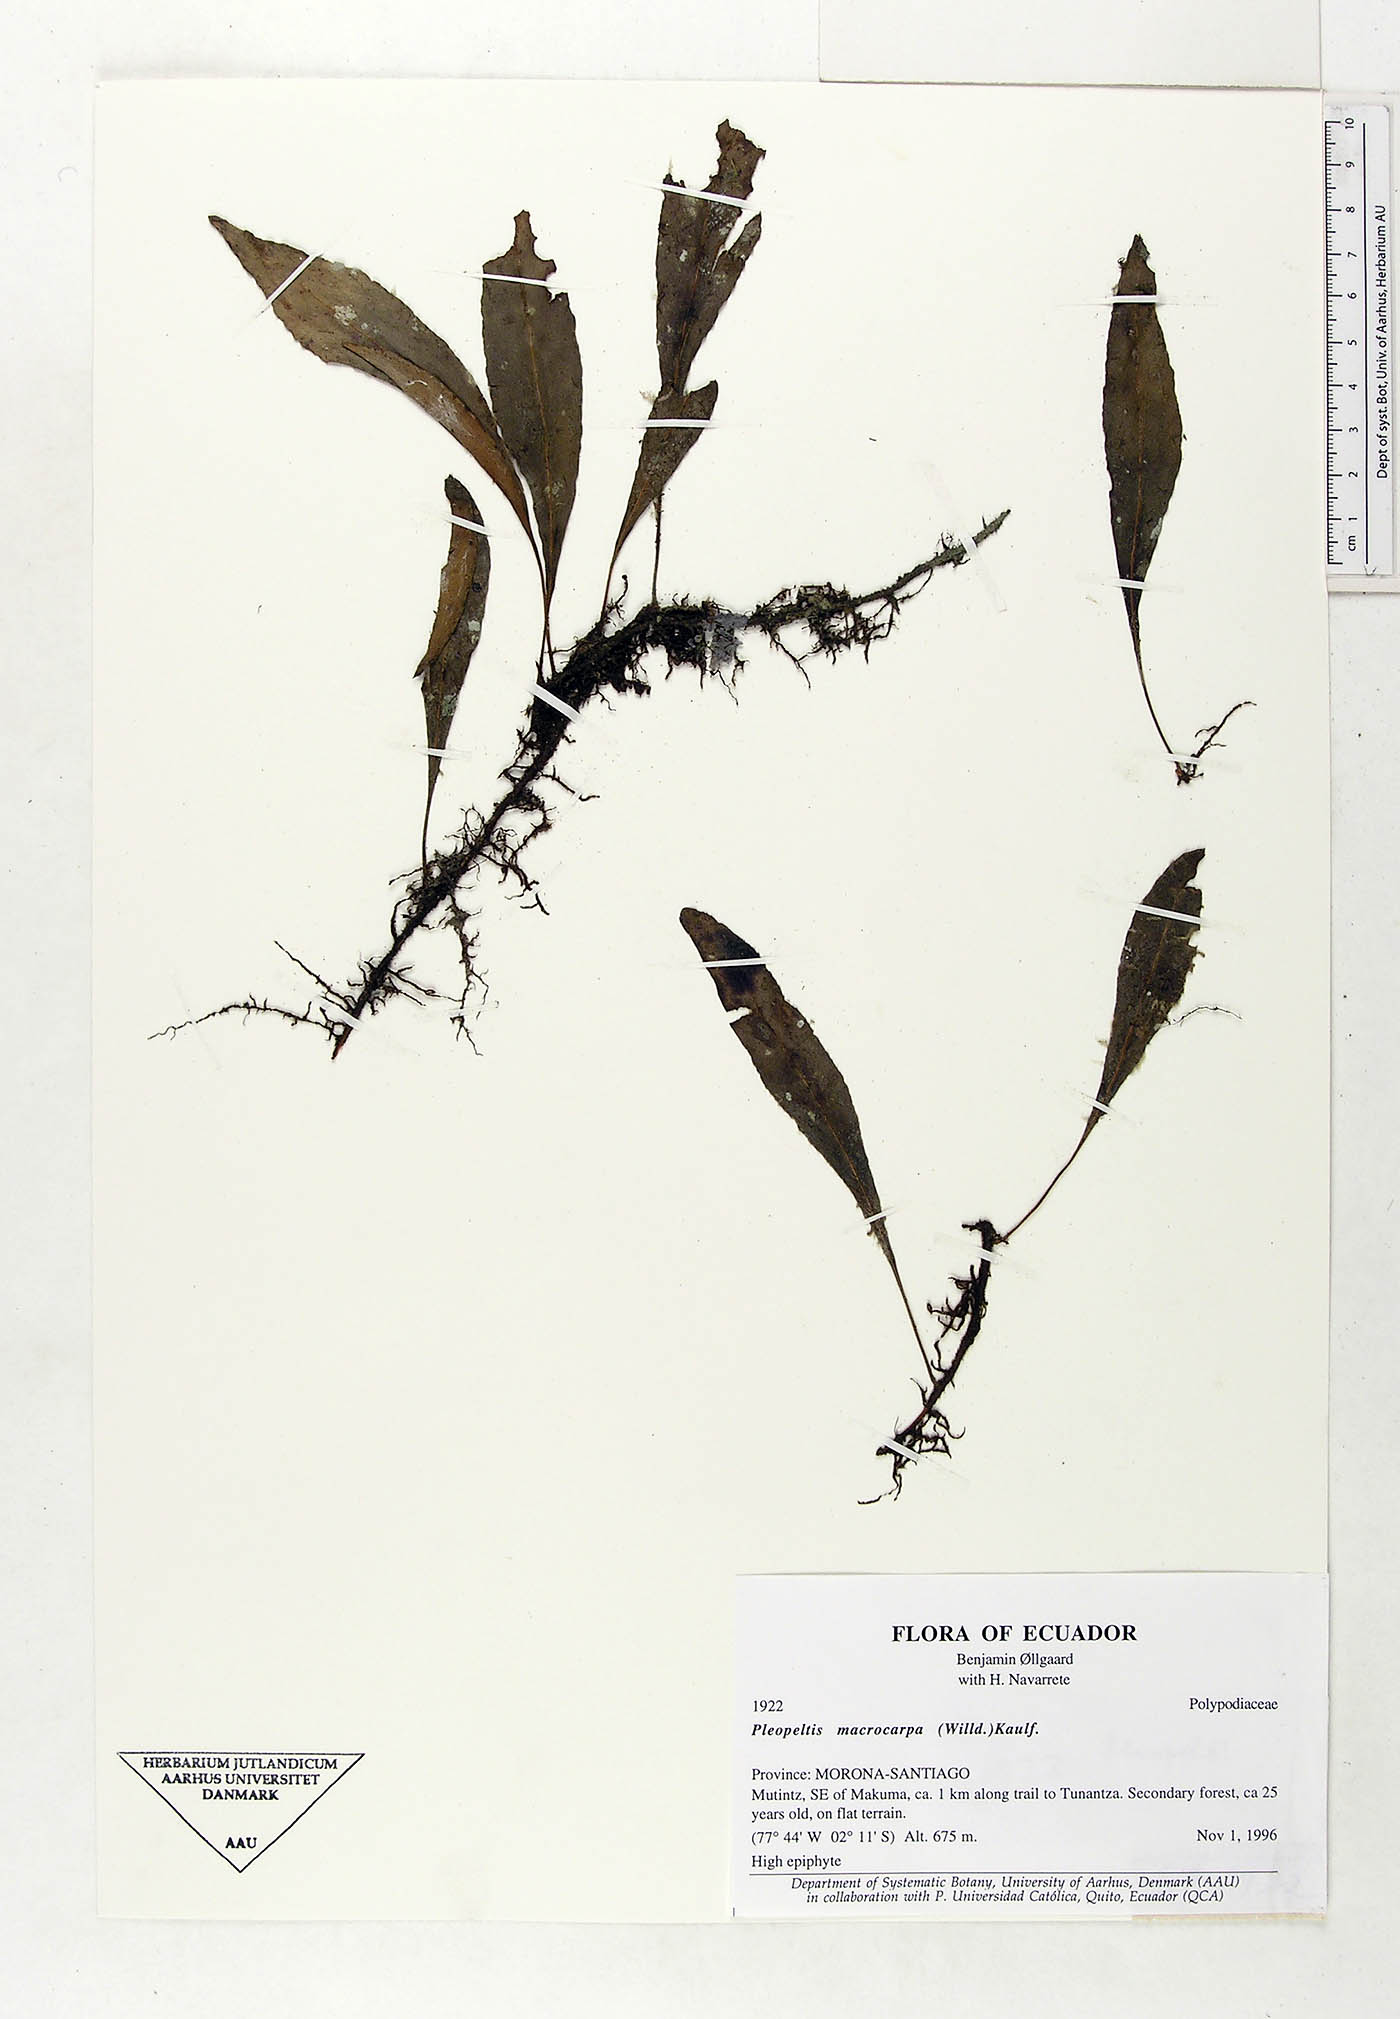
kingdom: Plantae
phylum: Tracheophyta
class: Polypodiopsida
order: Polypodiales
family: Polypodiaceae
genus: Pleopeltis
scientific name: Pleopeltis macrocarpa
